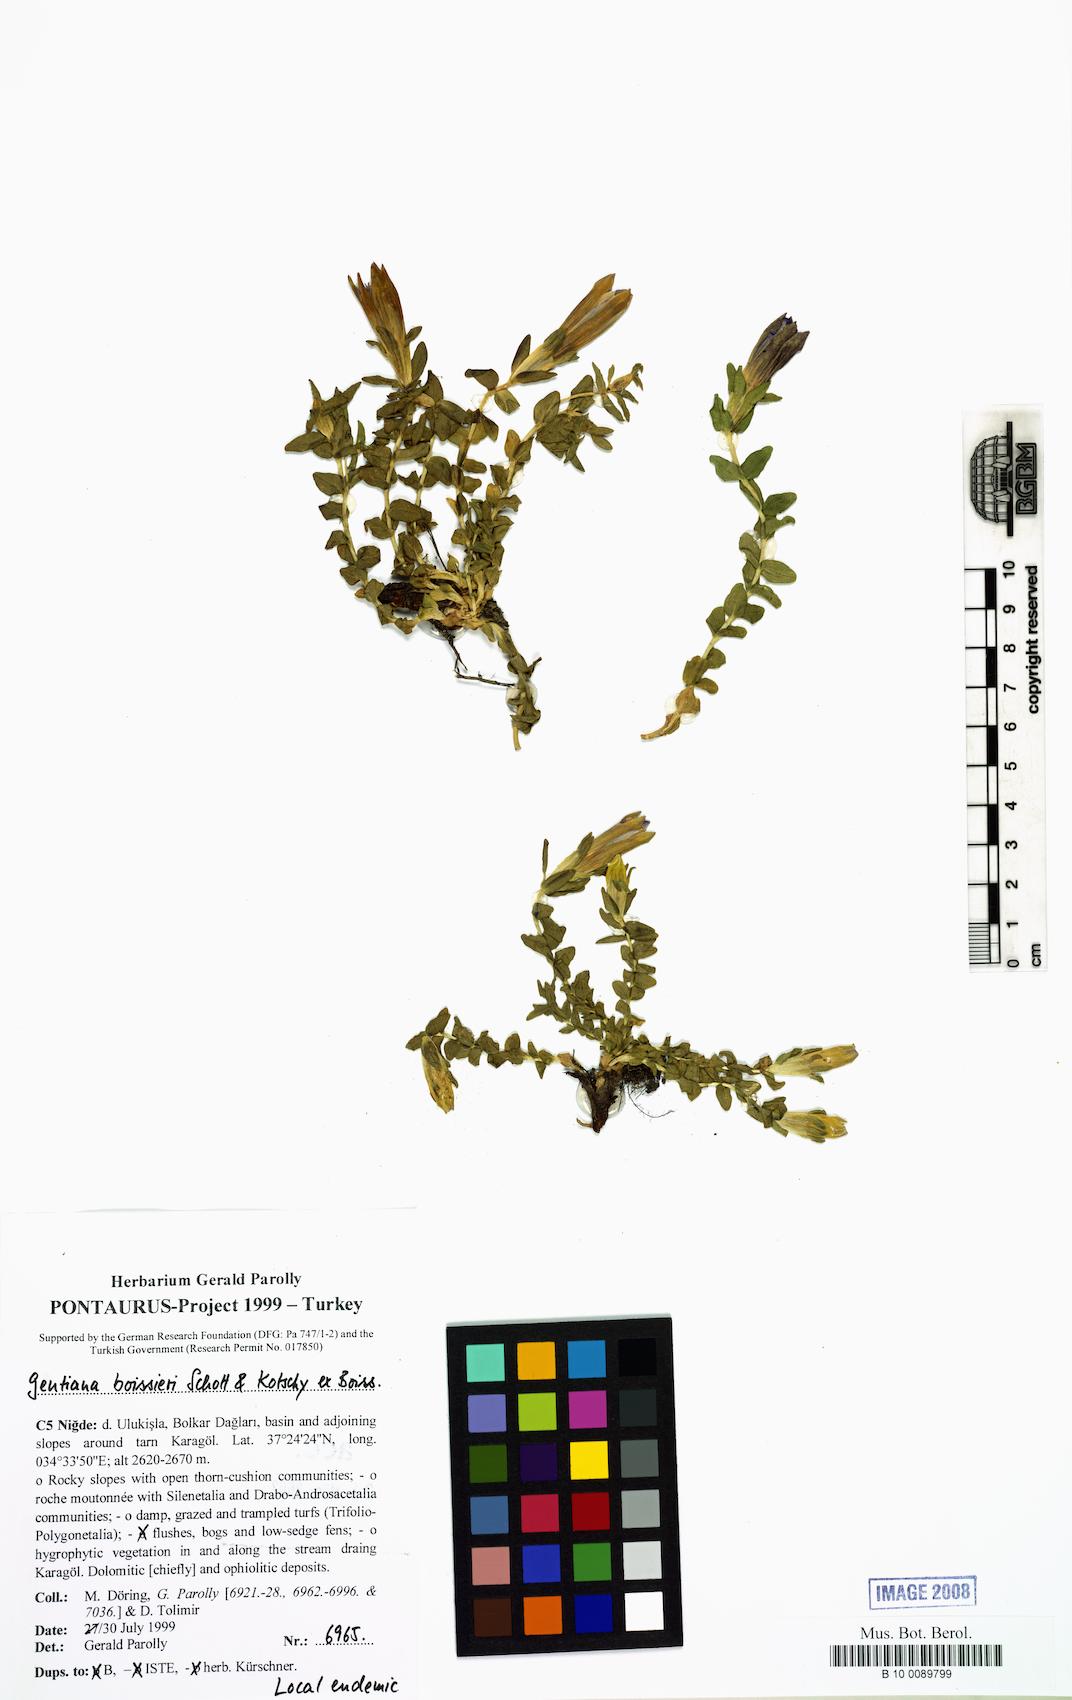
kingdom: Plantae
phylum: Tracheophyta
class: Magnoliopsida
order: Gentianales
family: Gentianaceae
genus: Gentiana
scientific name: Gentiana boissieri
